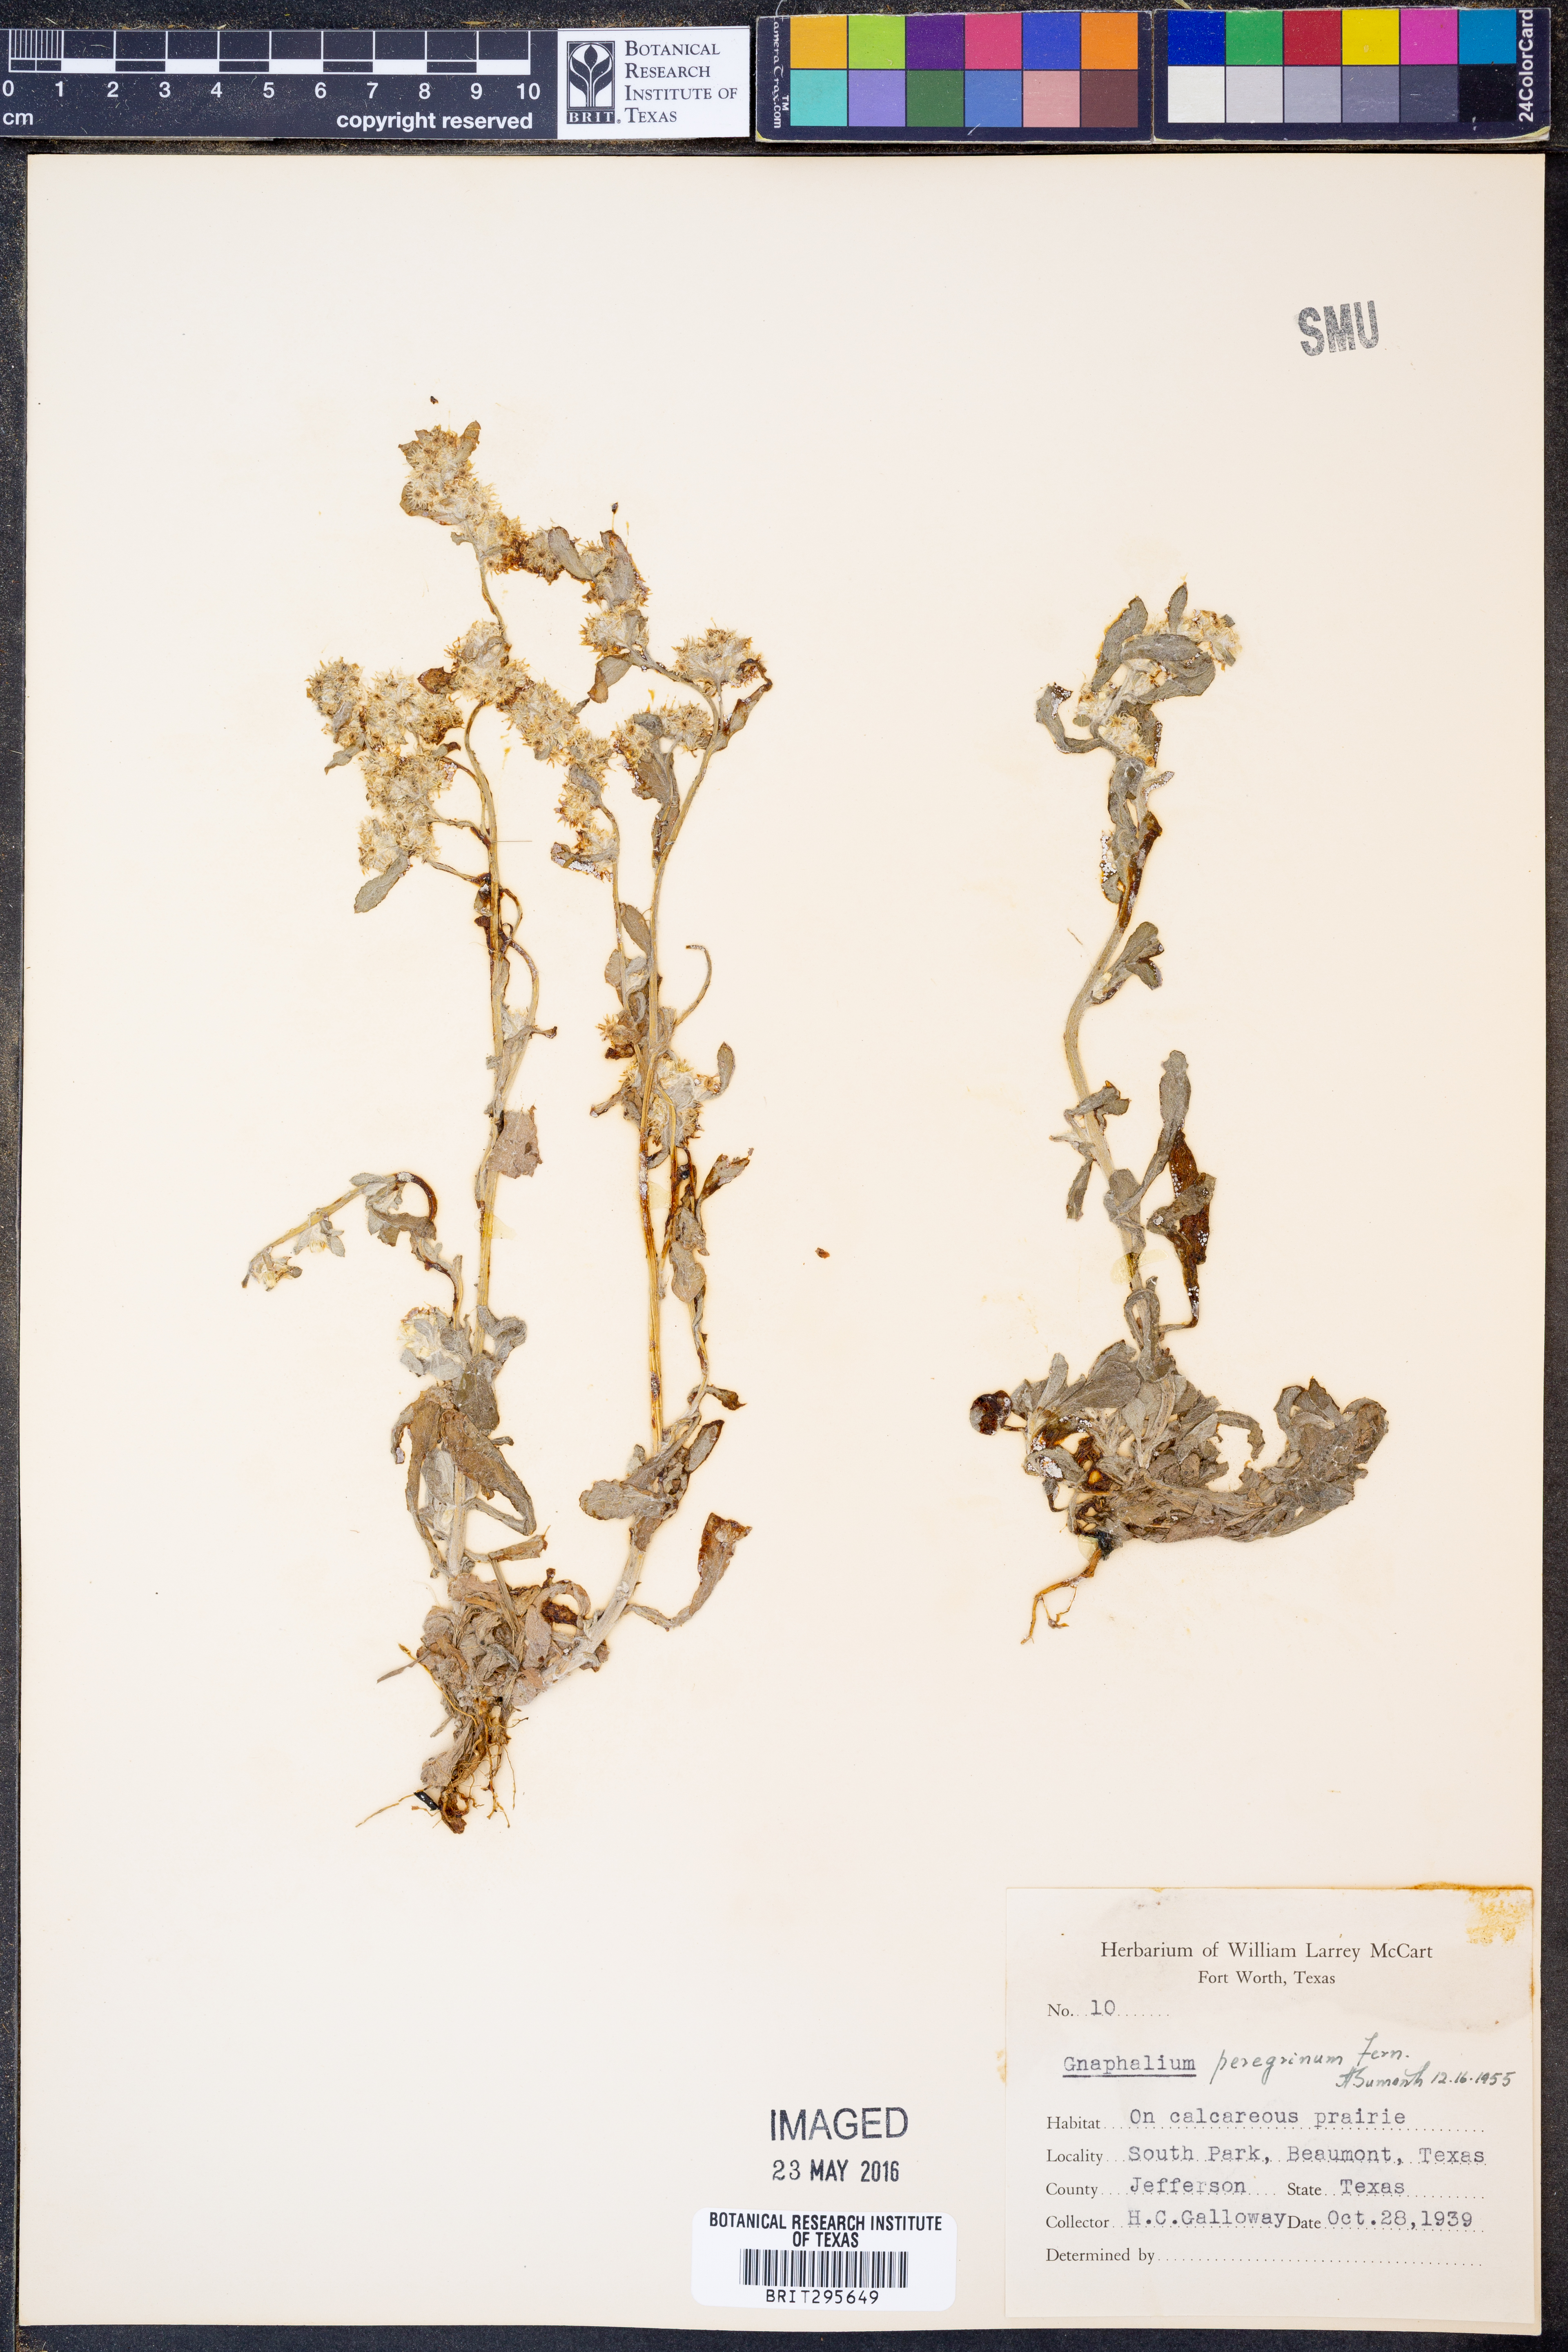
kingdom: Plantae
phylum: Tracheophyta
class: Magnoliopsida
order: Asterales
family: Asteraceae
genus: Gamochaeta
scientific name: Gamochaeta pensylvanica
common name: Pennsylvania everlasting
